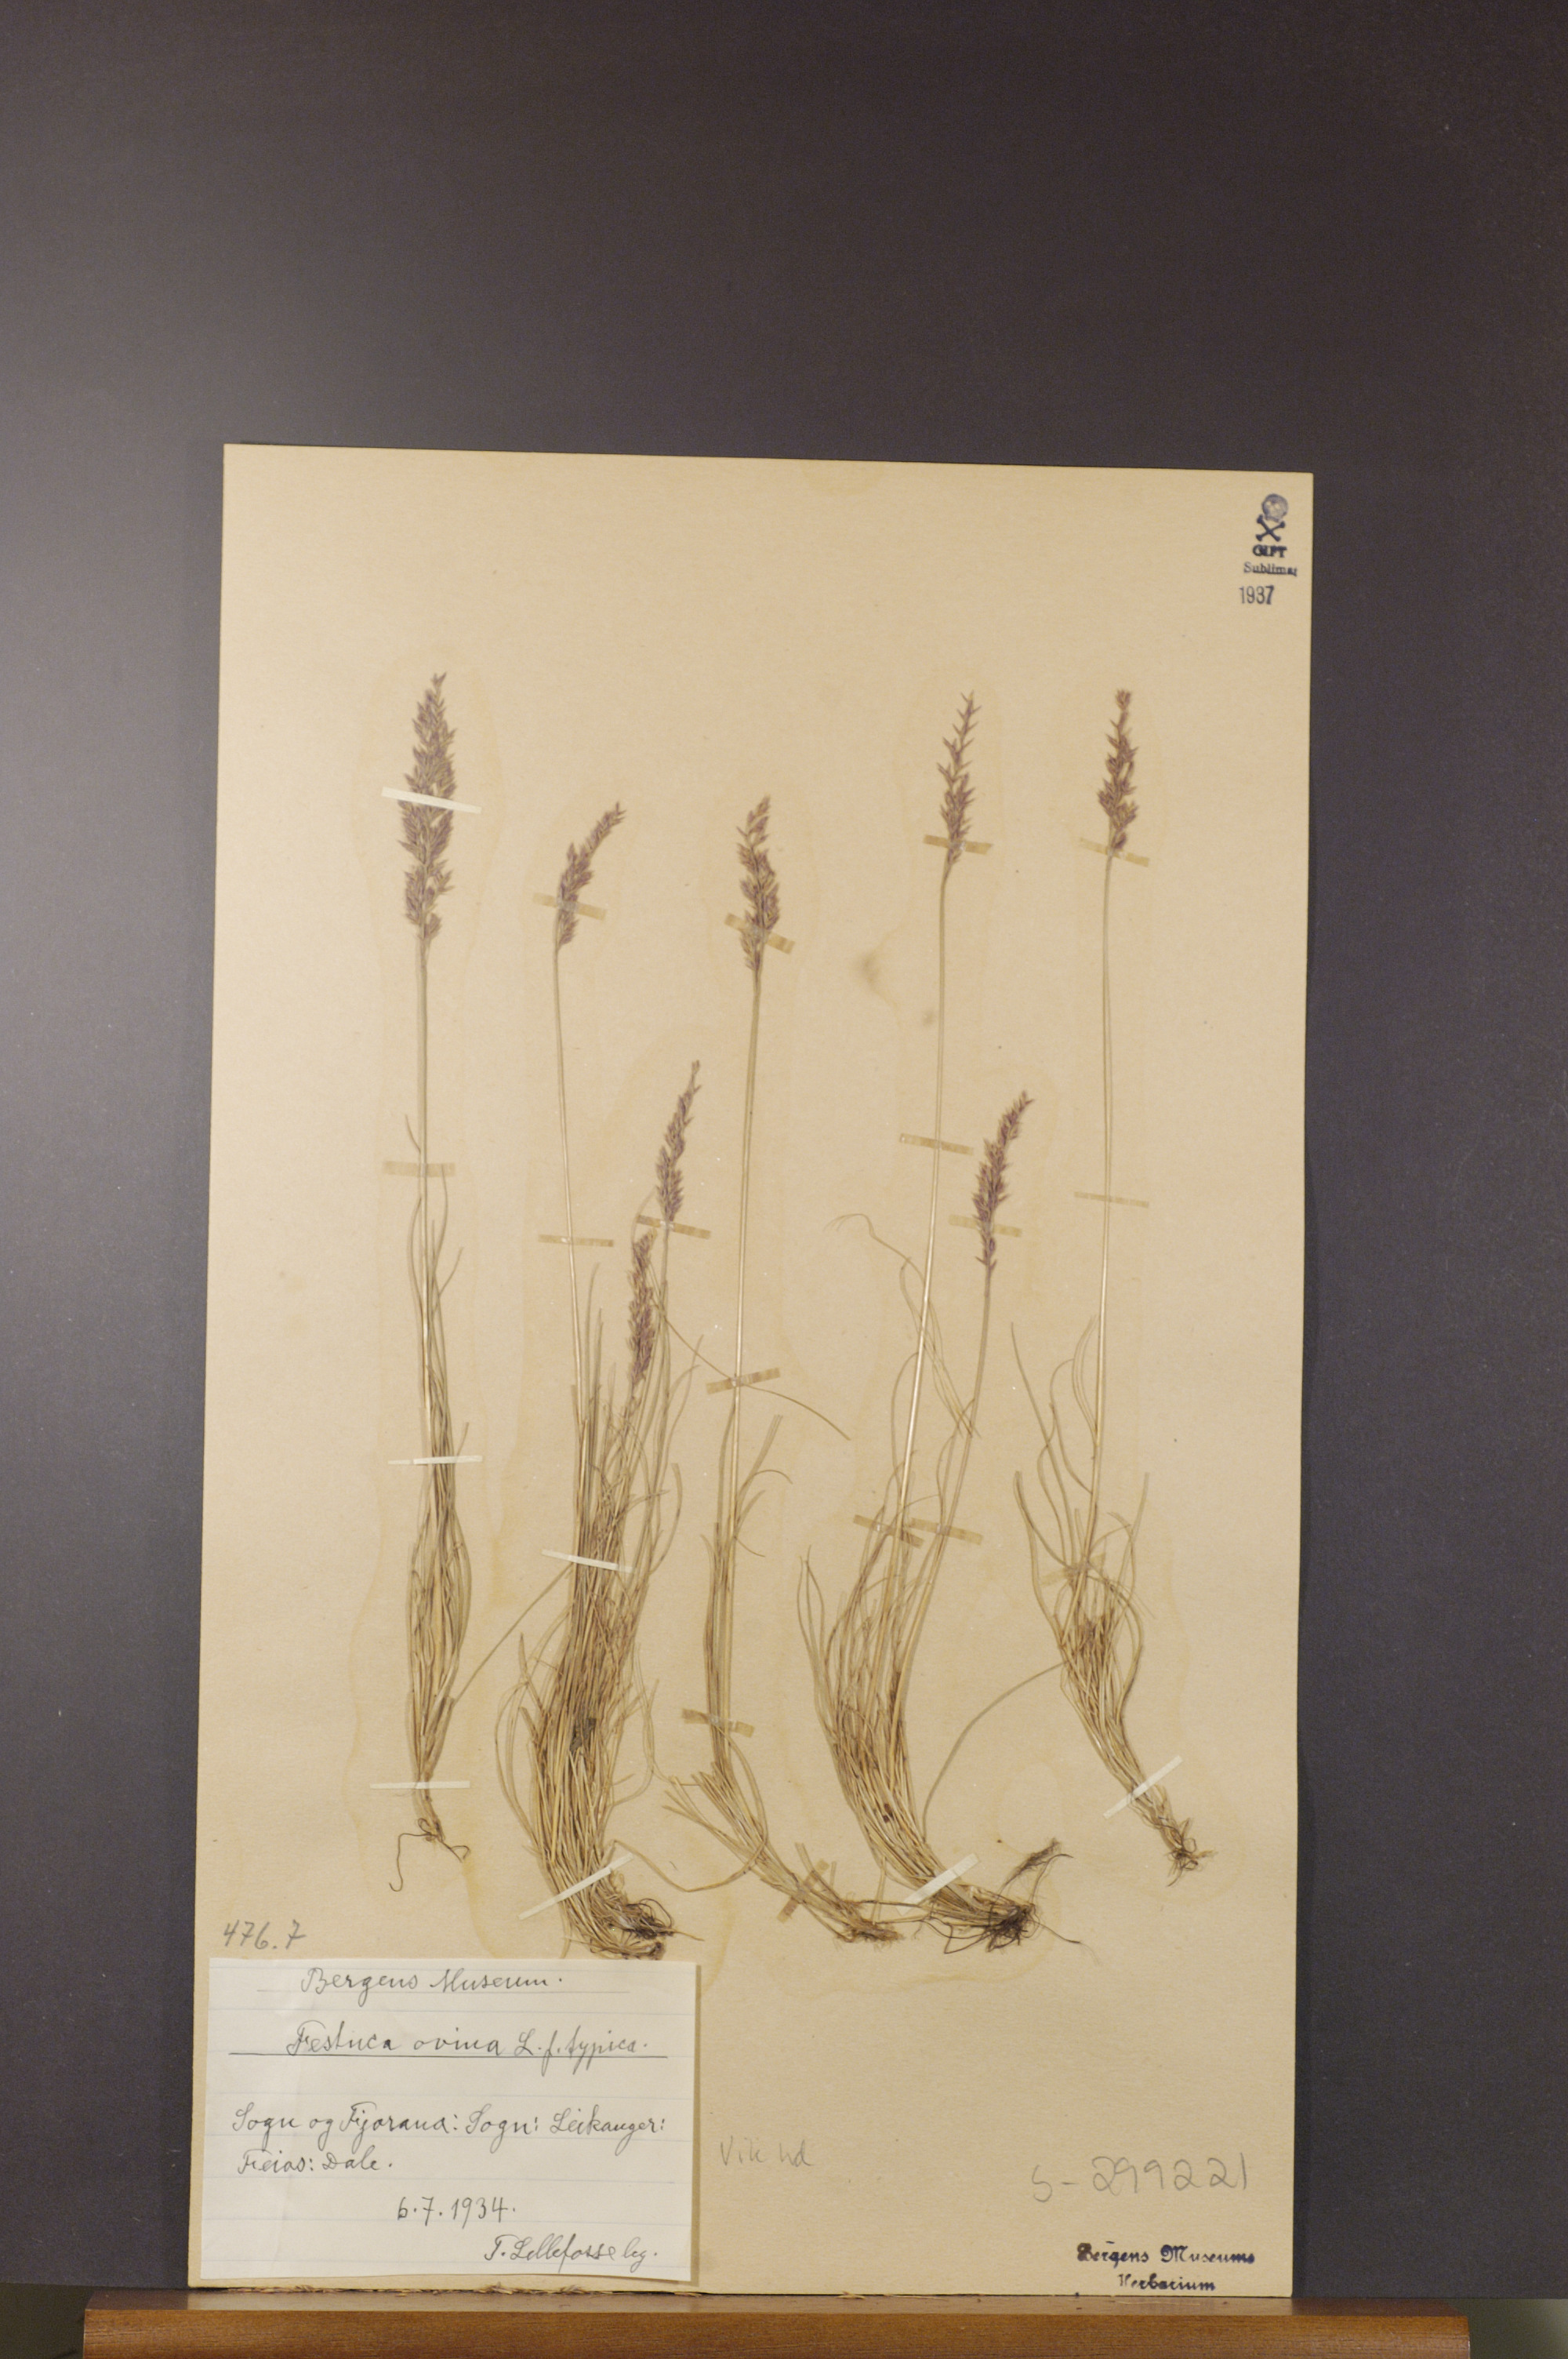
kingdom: Plantae
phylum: Tracheophyta
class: Liliopsida
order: Poales
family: Poaceae
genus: Festuca
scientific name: Festuca ovina
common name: Sheep fescue
